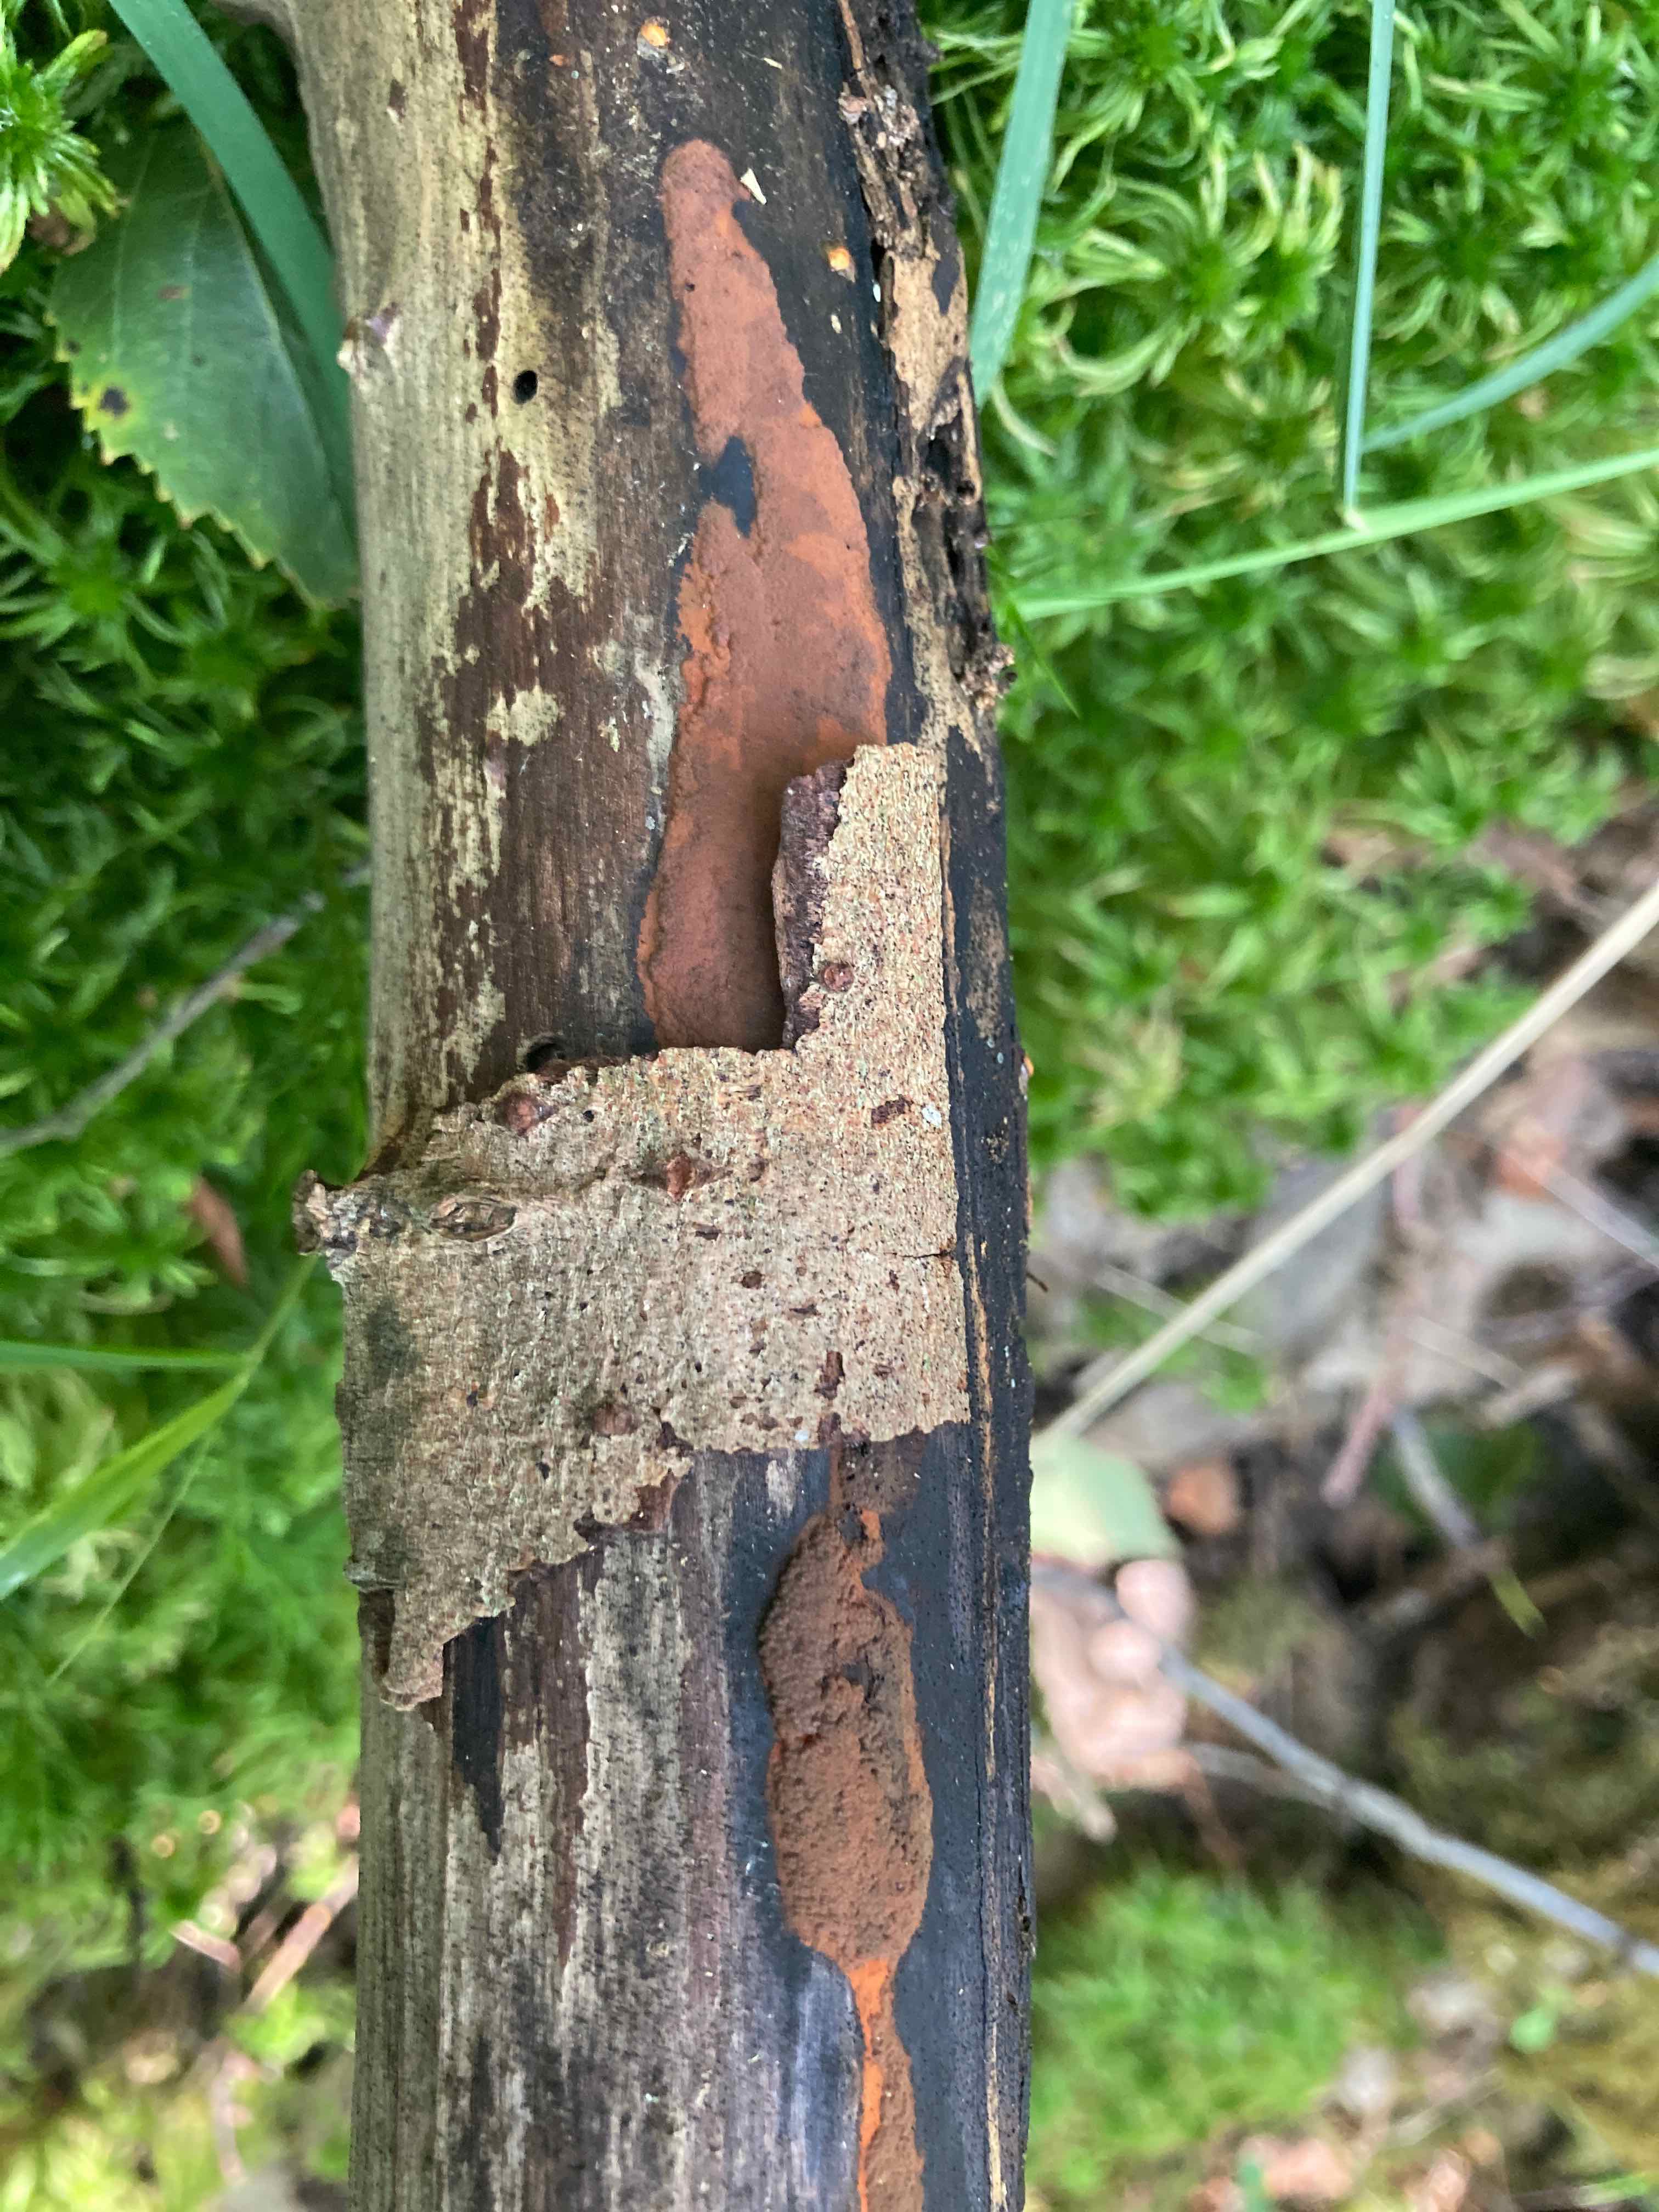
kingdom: Fungi
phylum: Ascomycota
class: Sordariomycetes
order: Xylariales
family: Hypoxylaceae
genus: Hypoxylon
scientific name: Hypoxylon rubiginosum
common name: rustfarvet kulbær
